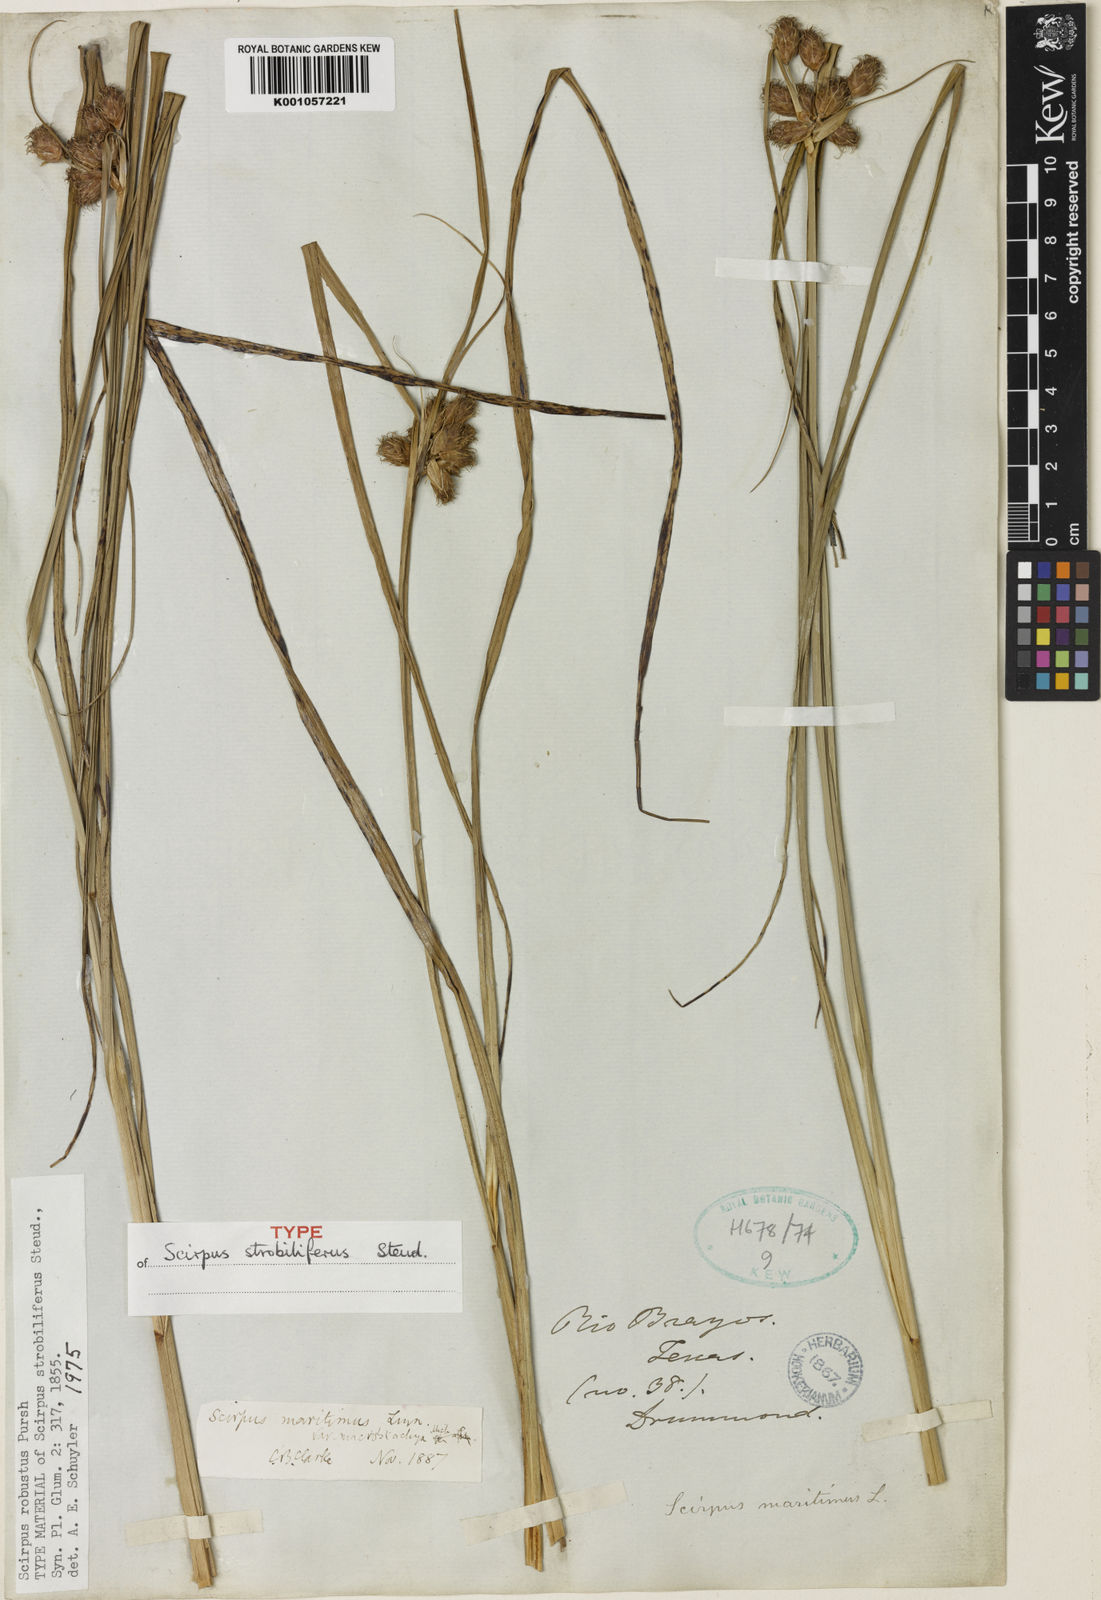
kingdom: Plantae
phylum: Tracheophyta
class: Liliopsida
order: Poales
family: Cyperaceae
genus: Bolboschoenus
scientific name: Bolboschoenus maritimus
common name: Sea club-rush
